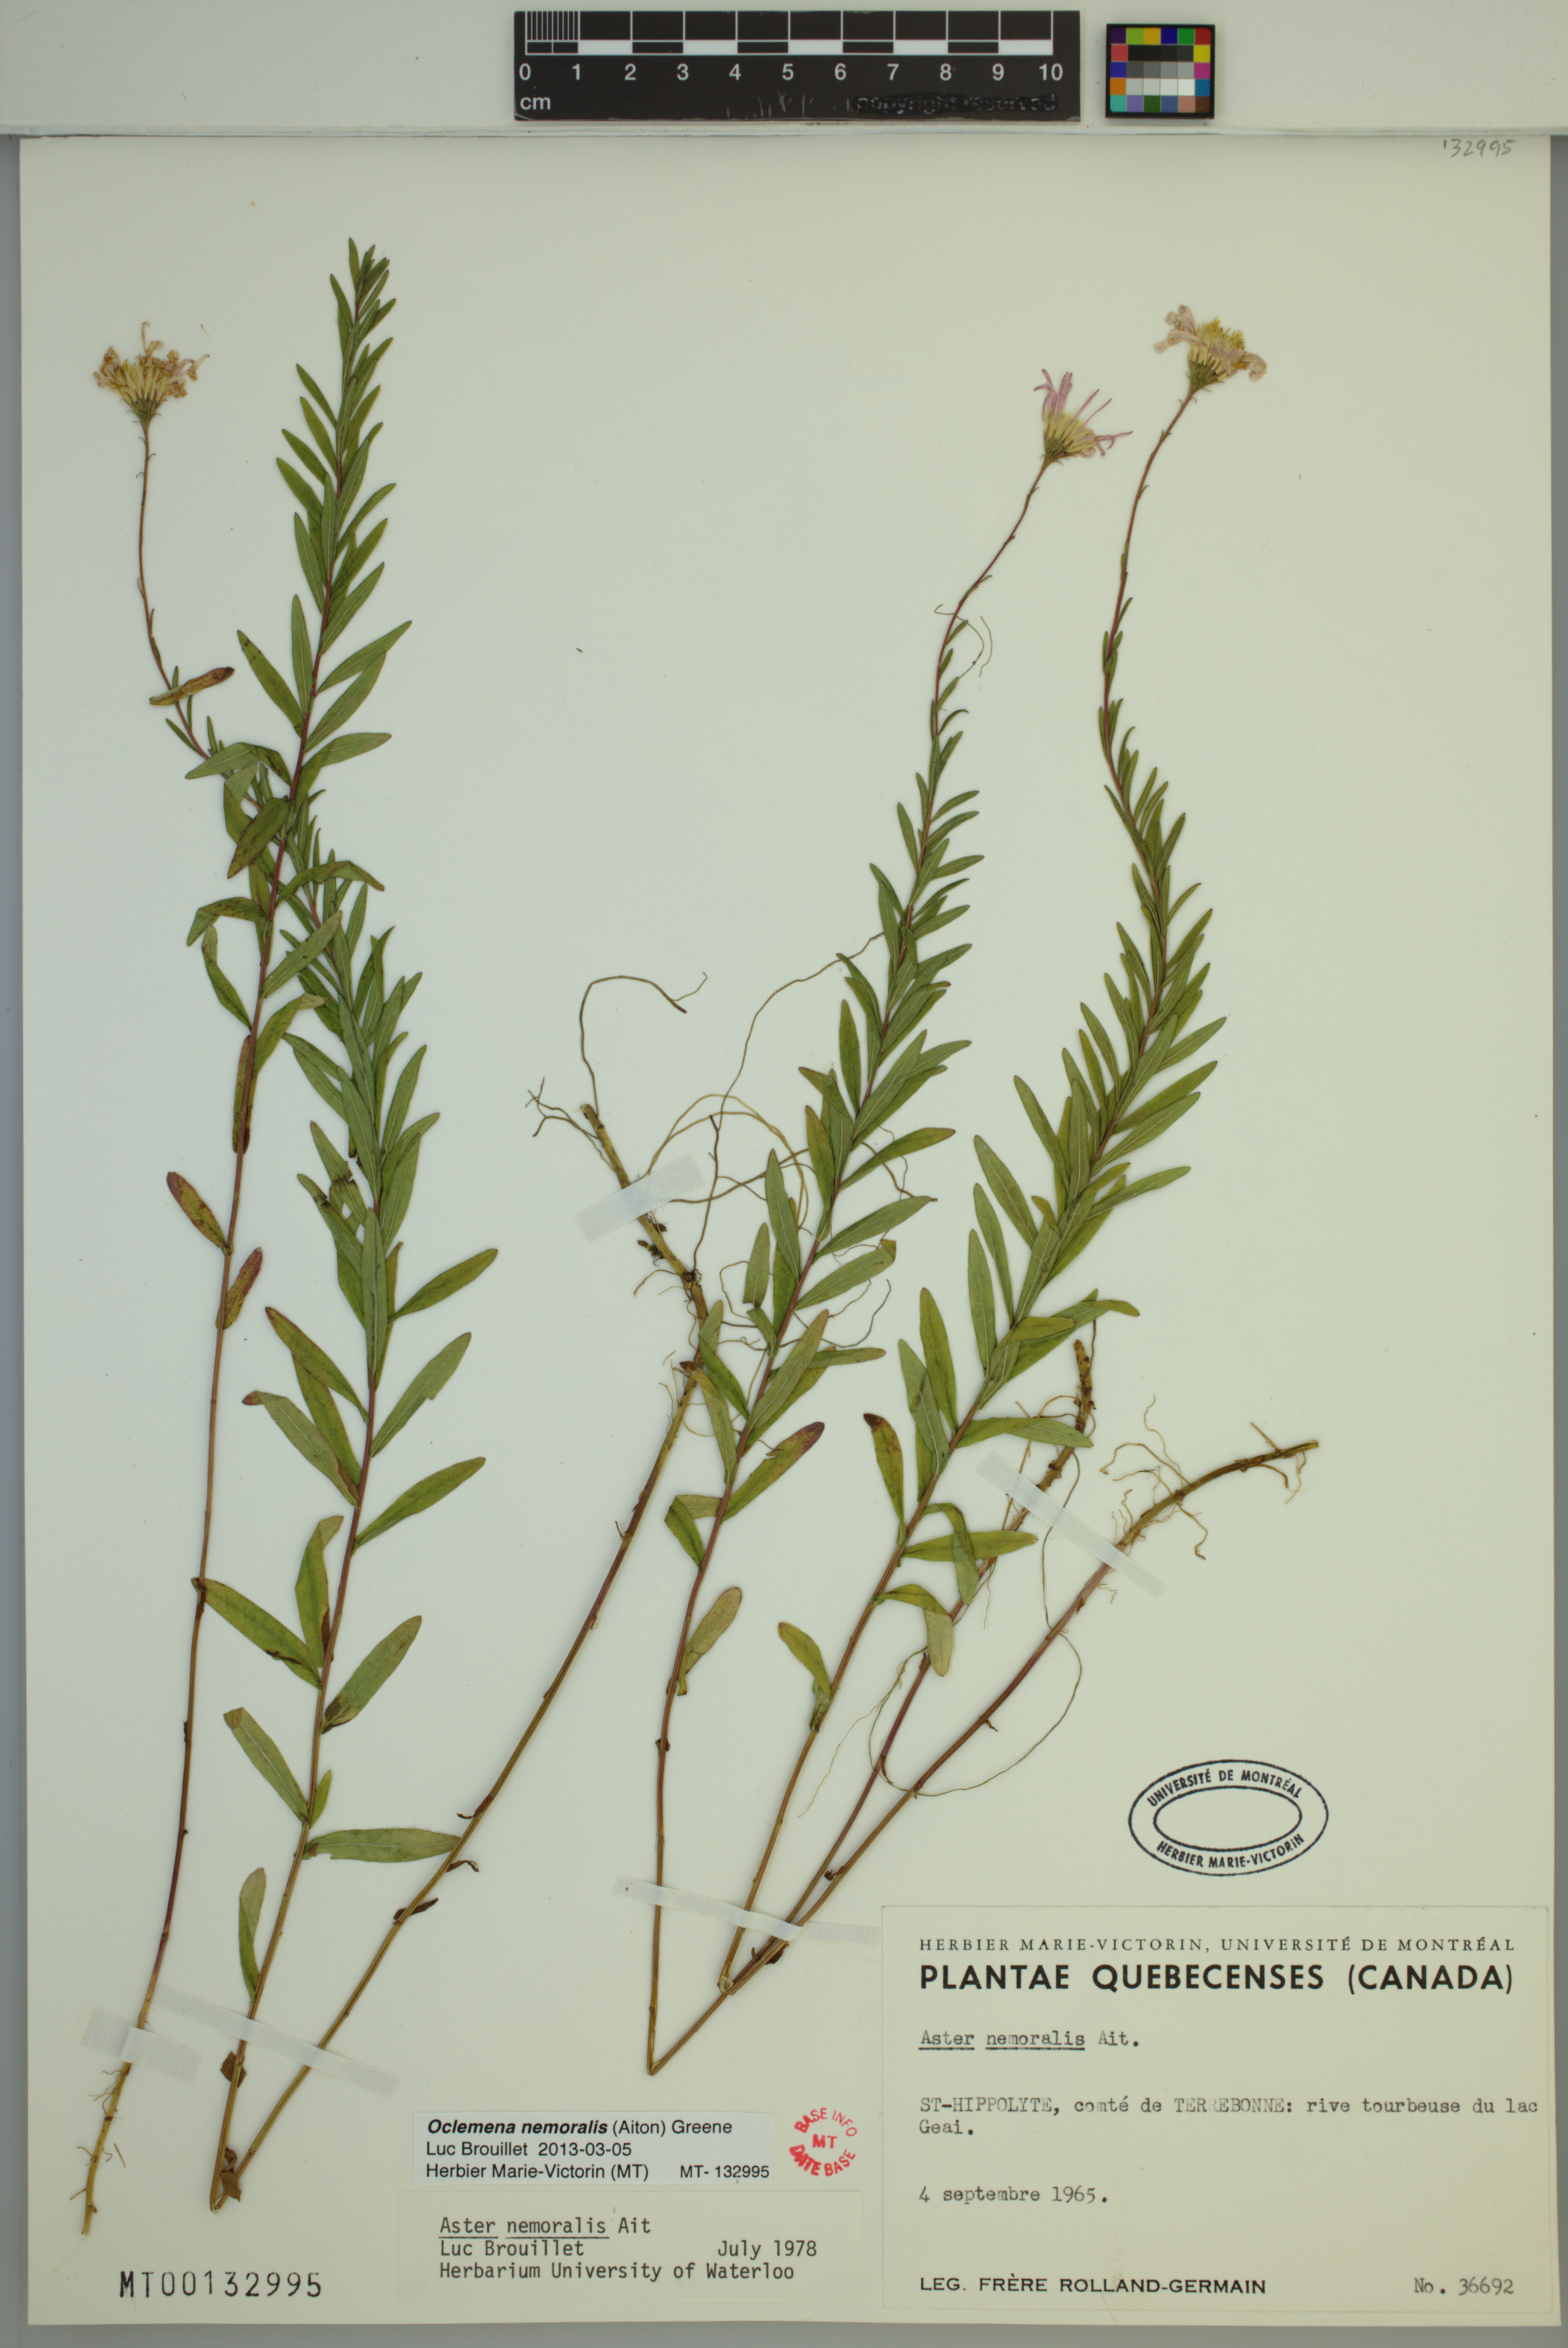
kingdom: Plantae
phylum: Tracheophyta
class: Magnoliopsida
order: Asterales
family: Asteraceae
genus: Oclemena
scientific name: Oclemena nemoralis
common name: Bog aster
